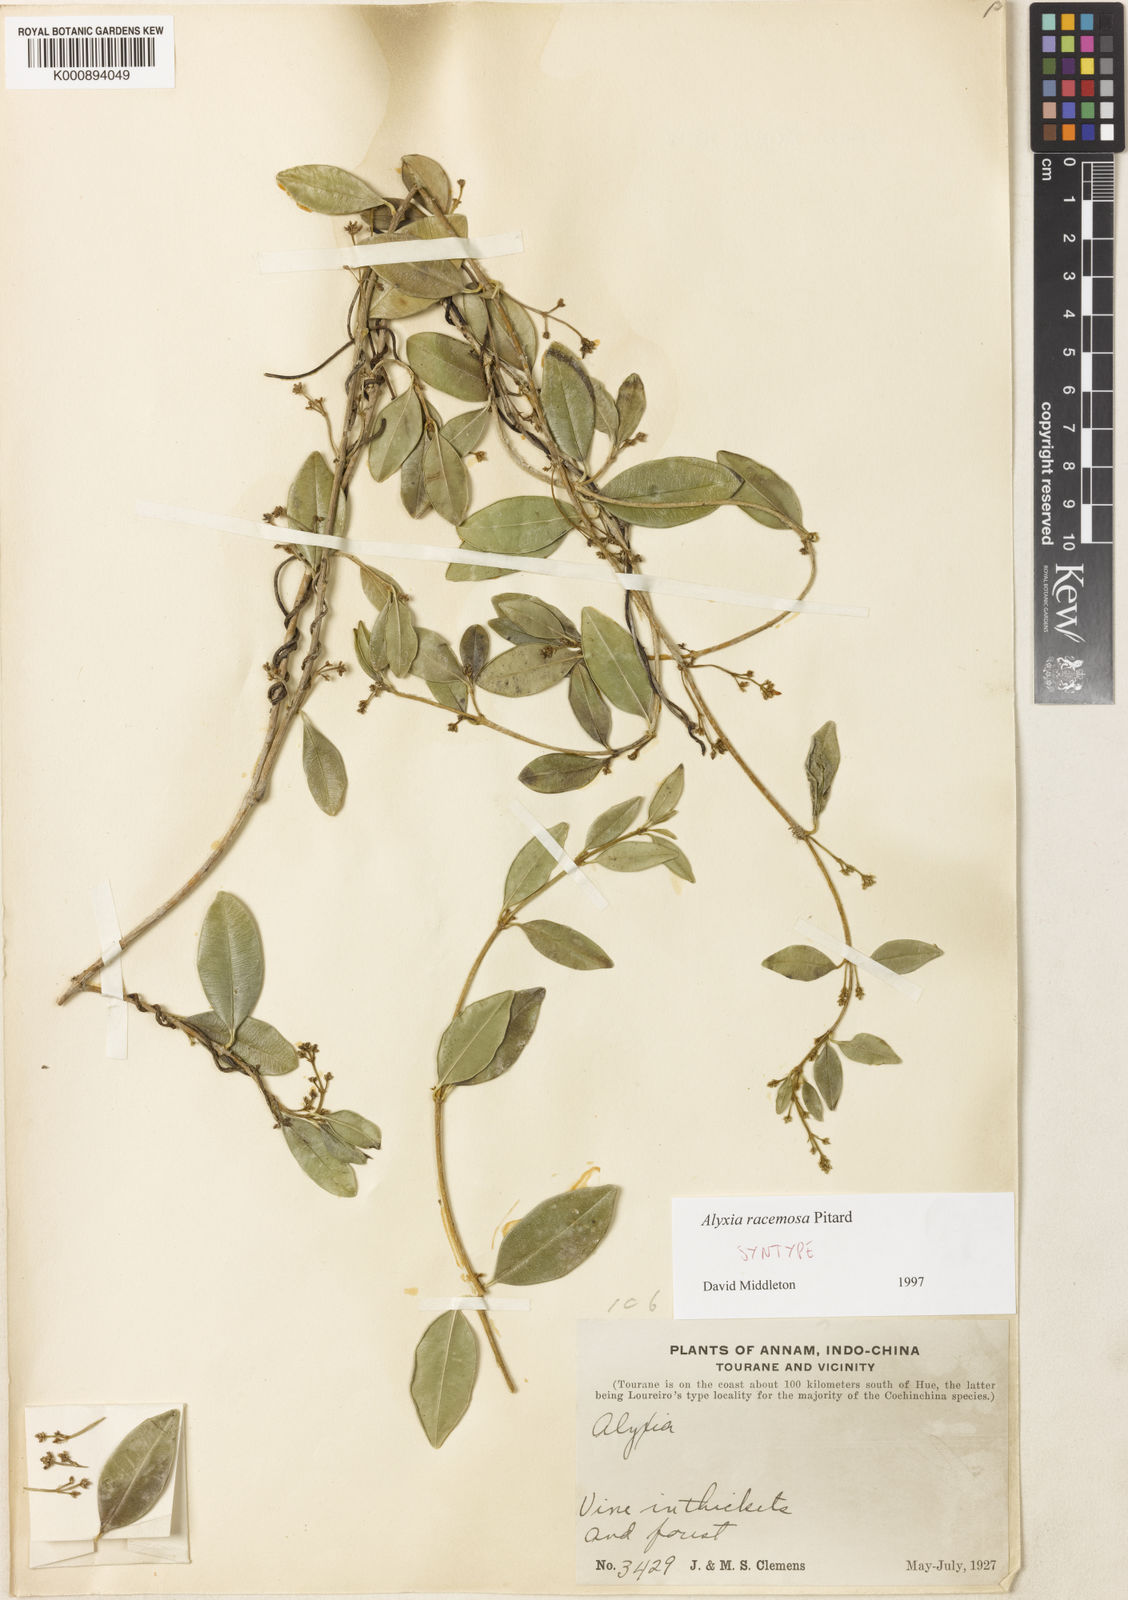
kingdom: Plantae
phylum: Tracheophyta
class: Magnoliopsida
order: Gentianales
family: Apocynaceae
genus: Alyxia
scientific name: Alyxia racemosa
